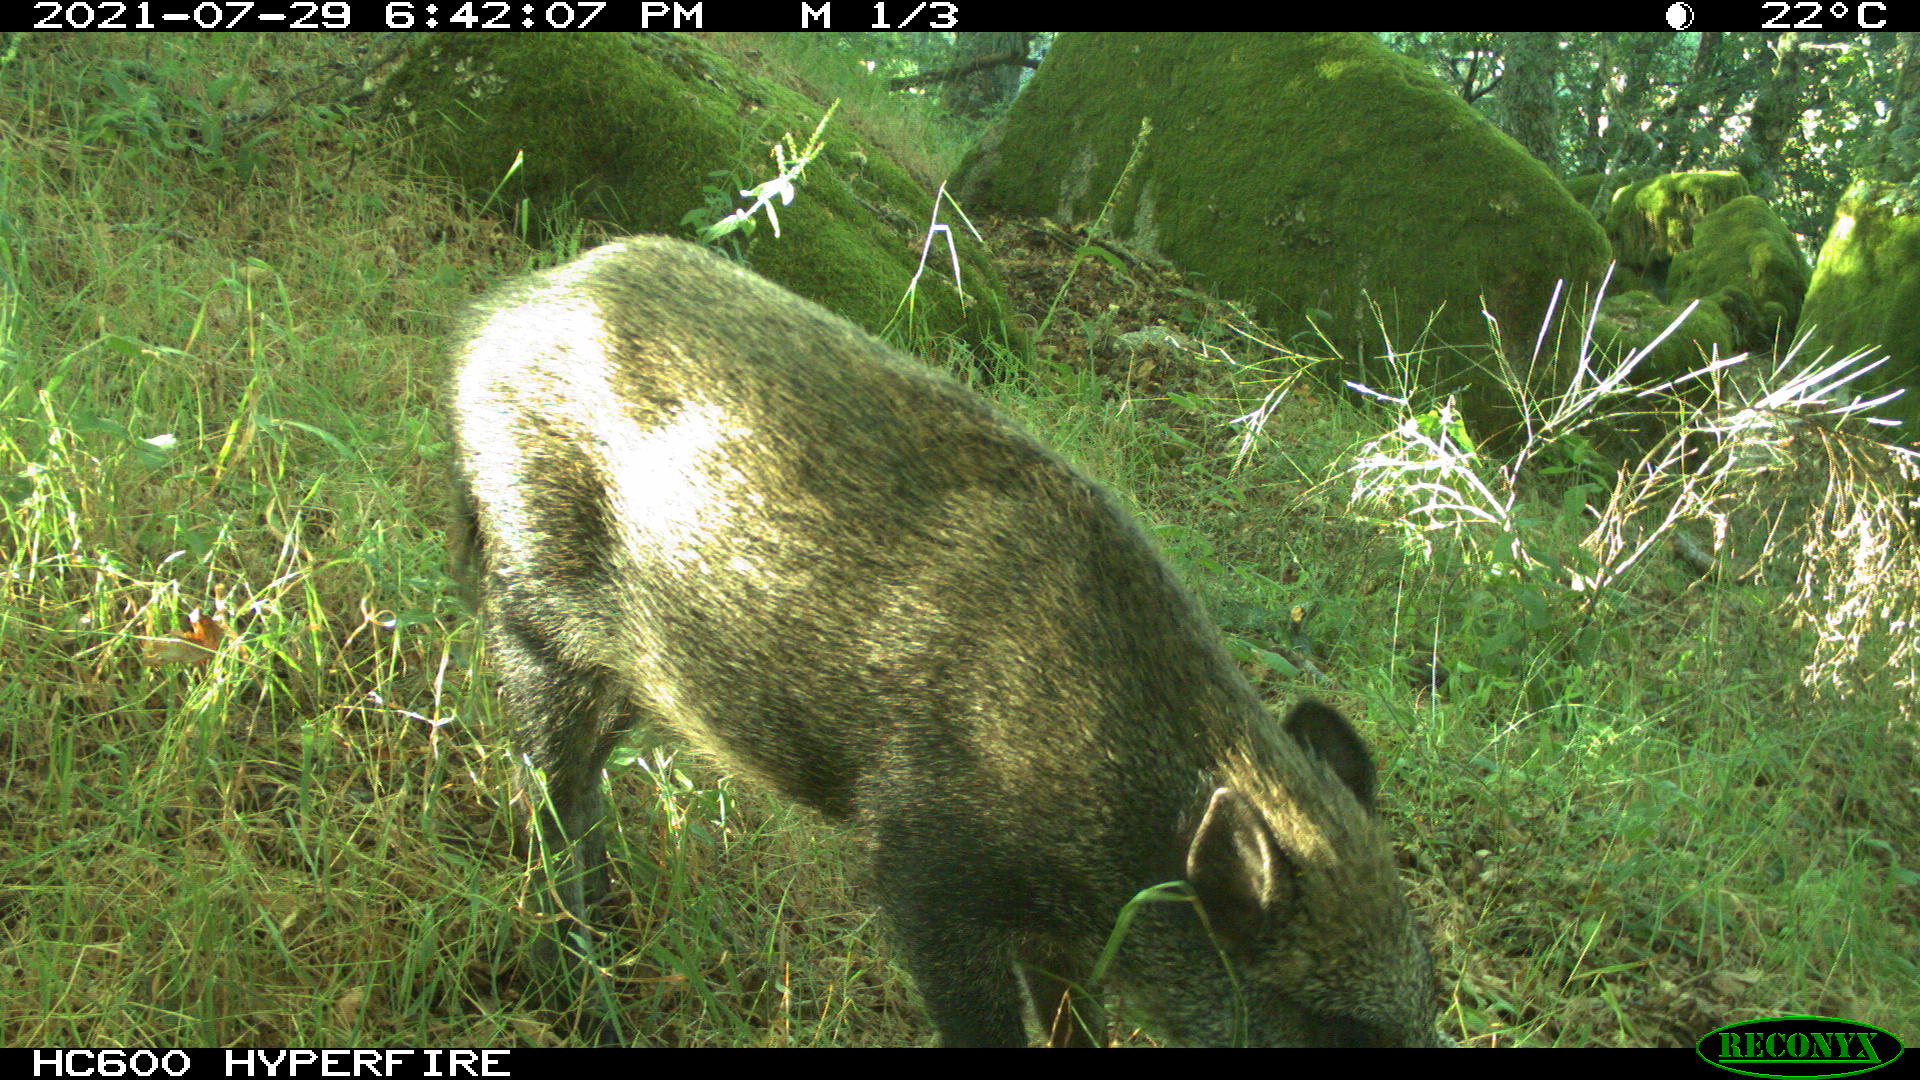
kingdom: Animalia
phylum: Chordata
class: Mammalia
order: Artiodactyla
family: Suidae
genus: Sus
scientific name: Sus scrofa
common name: Wild boar
